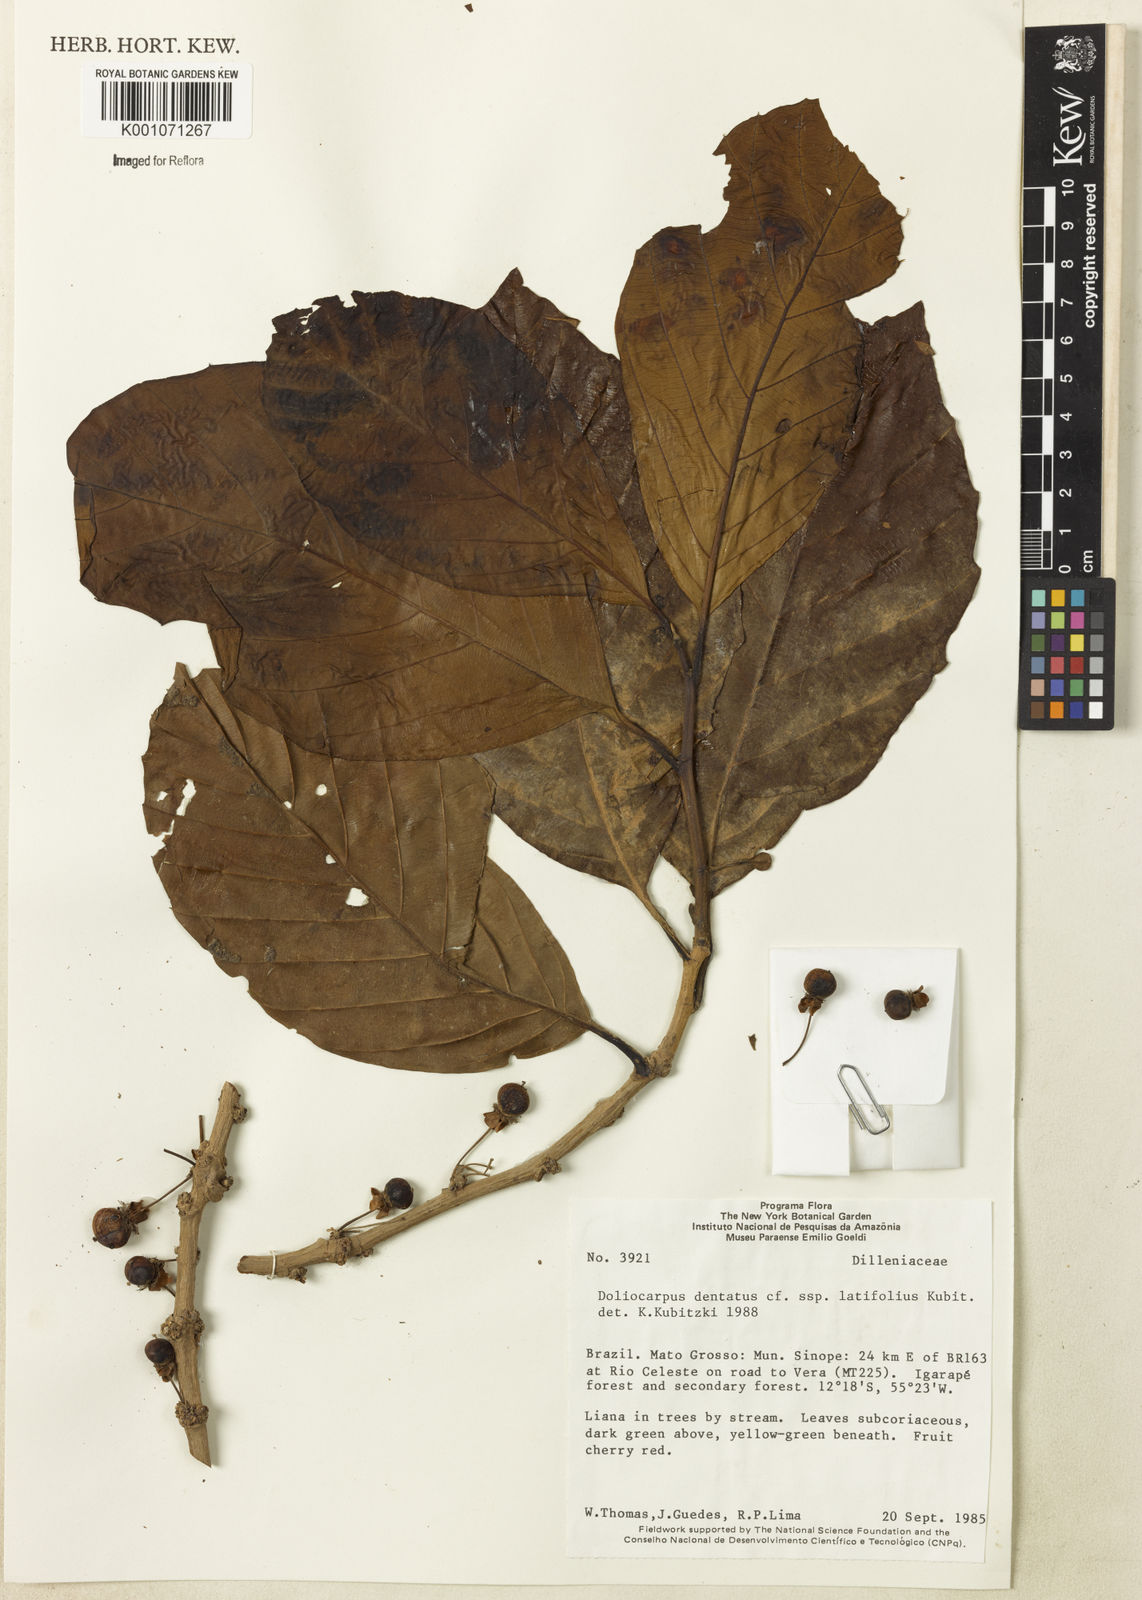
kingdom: Plantae
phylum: Tracheophyta
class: Magnoliopsida
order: Dilleniales
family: Dilleniaceae
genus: Doliocarpus
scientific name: Doliocarpus dentatus
